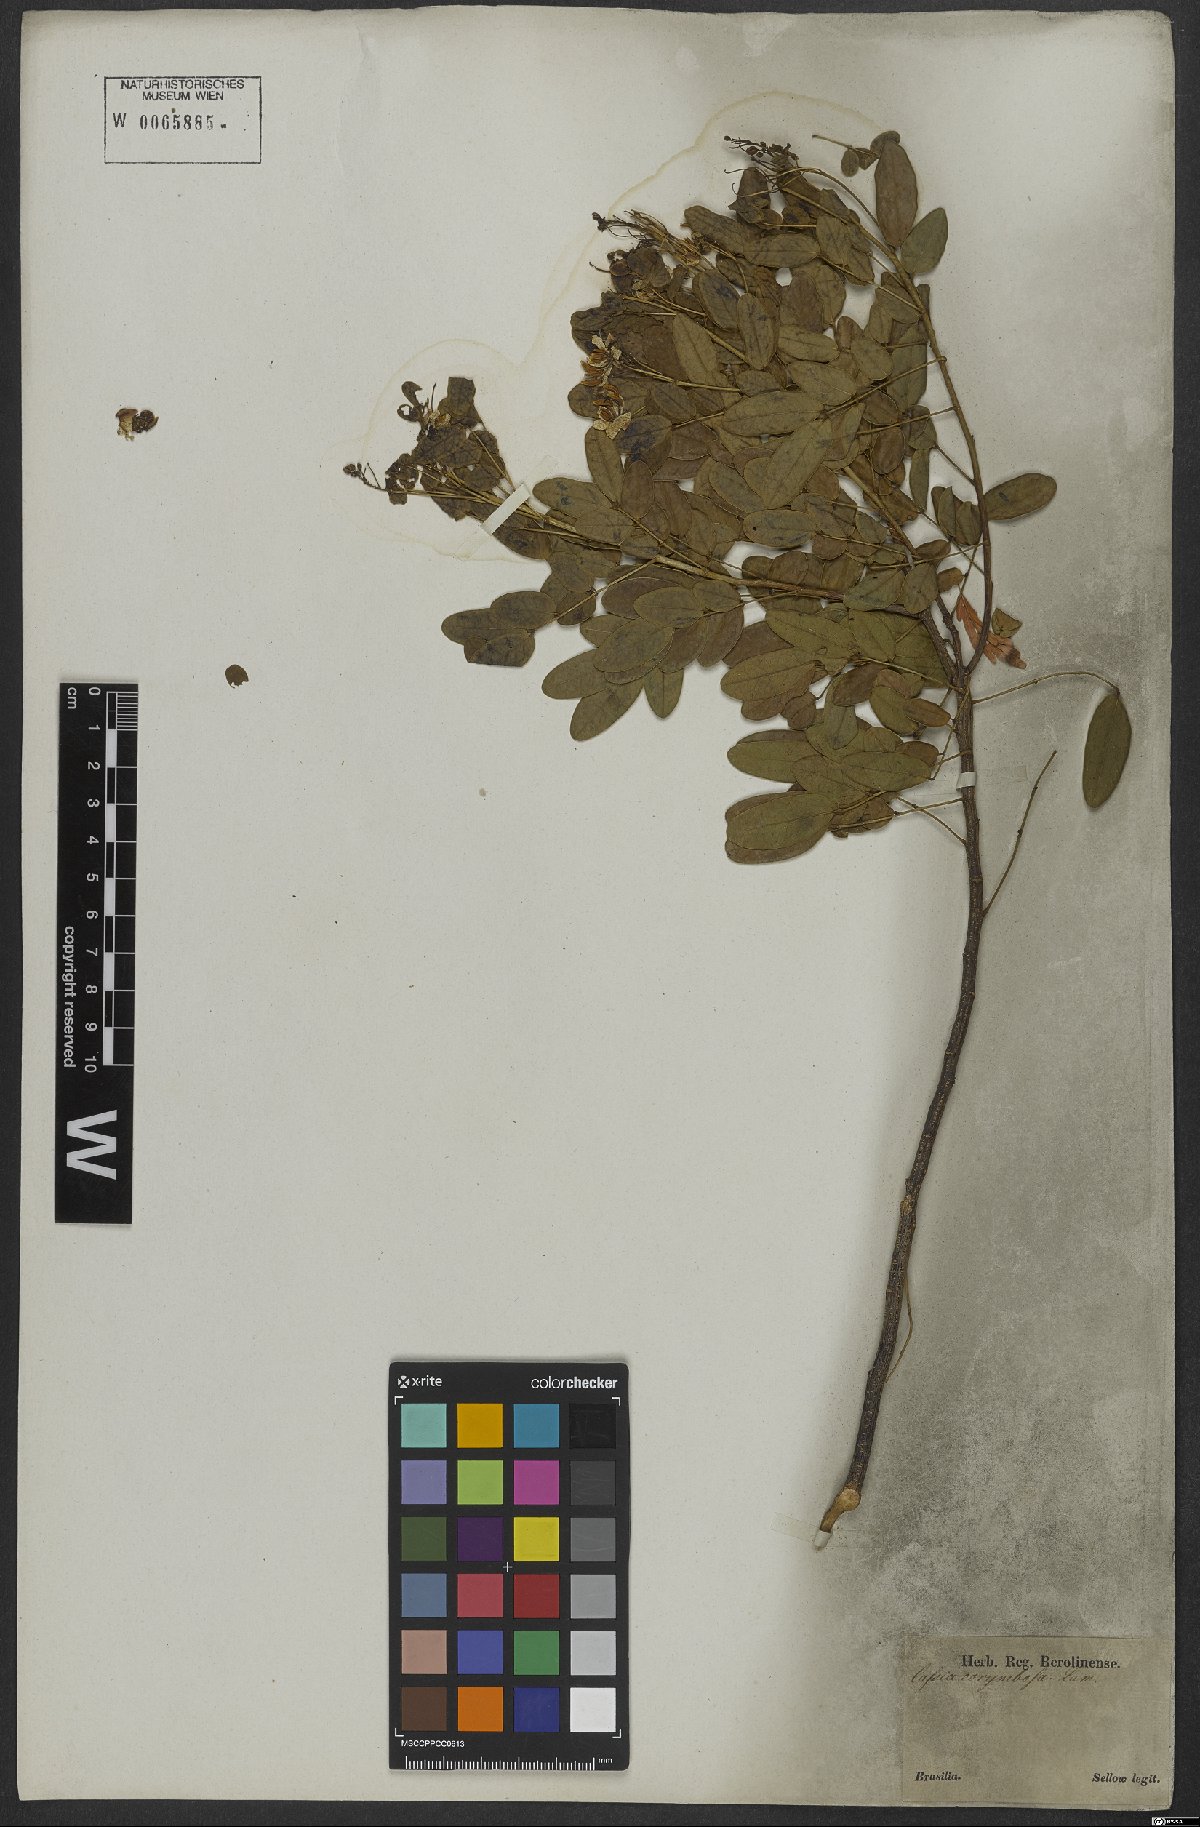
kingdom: Plantae
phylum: Tracheophyta
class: Magnoliopsida
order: Fabales
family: Fabaceae
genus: Senna
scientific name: Senna corymbosa
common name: Argentine senna
